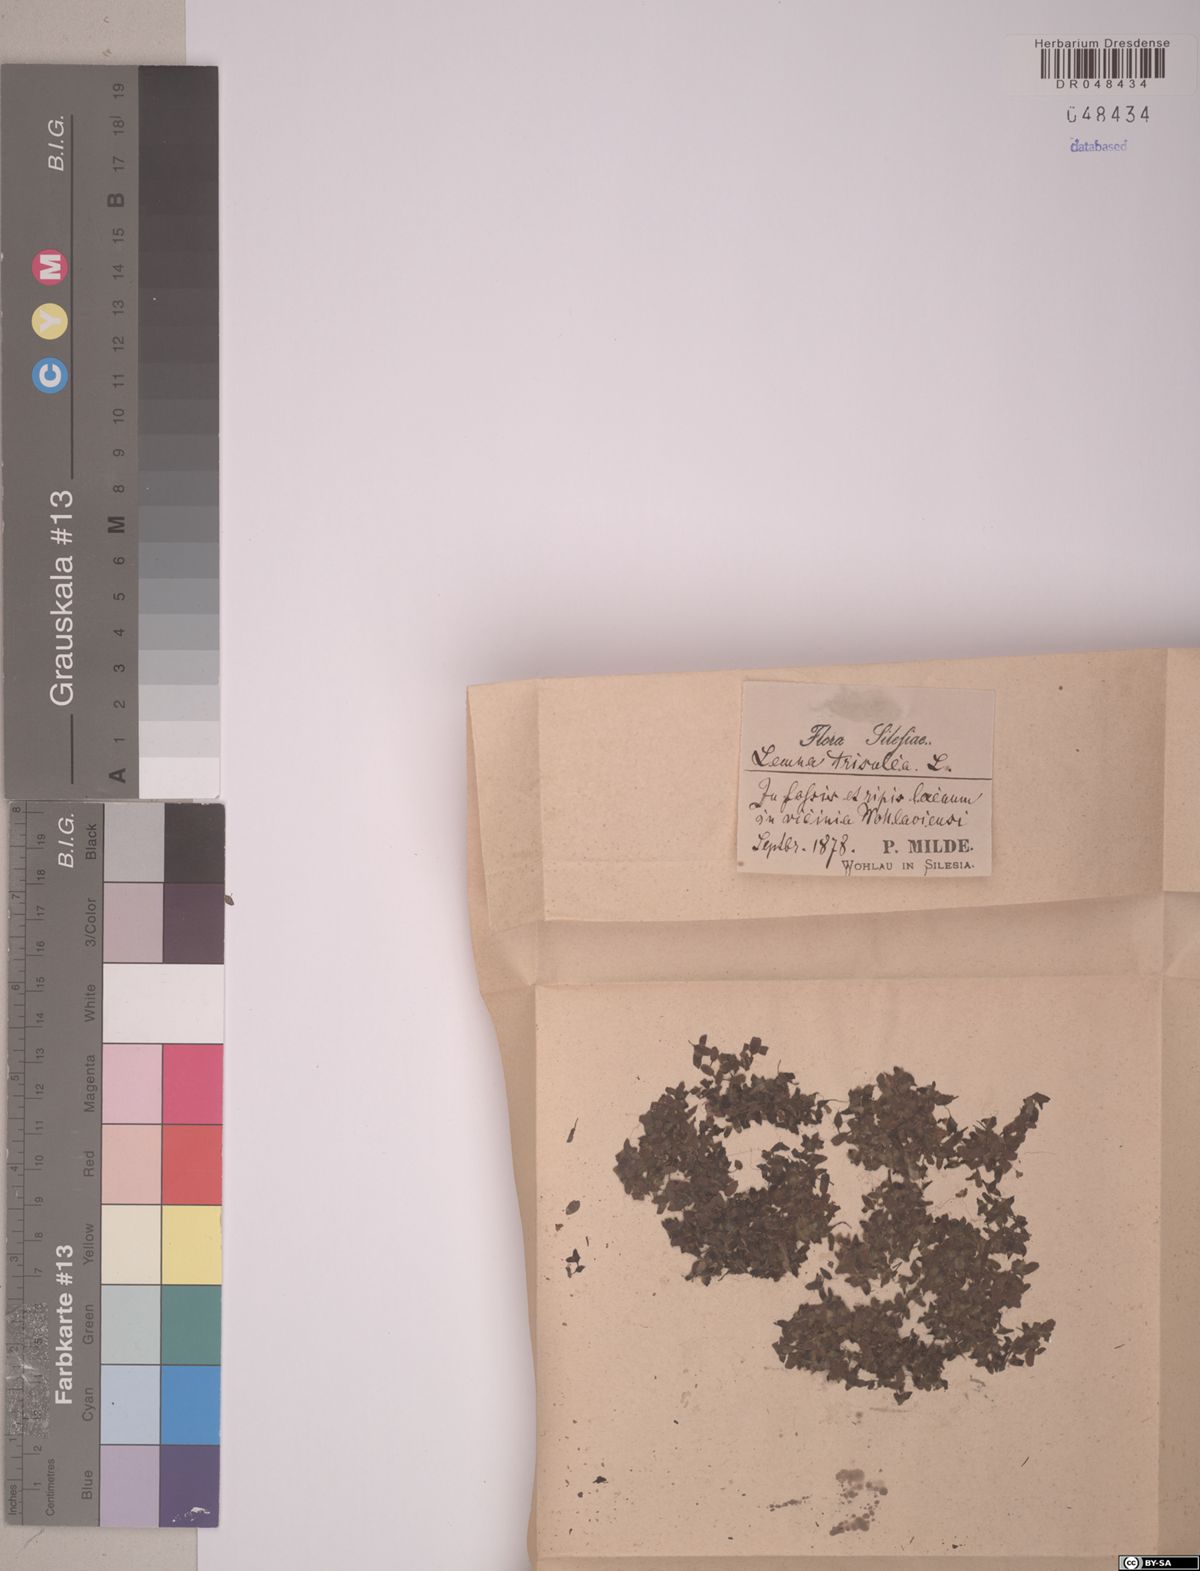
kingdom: Plantae
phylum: Tracheophyta
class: Liliopsida
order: Alismatales
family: Araceae
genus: Lemna
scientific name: Lemna trisulca
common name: Ivy-leaved duckweed
